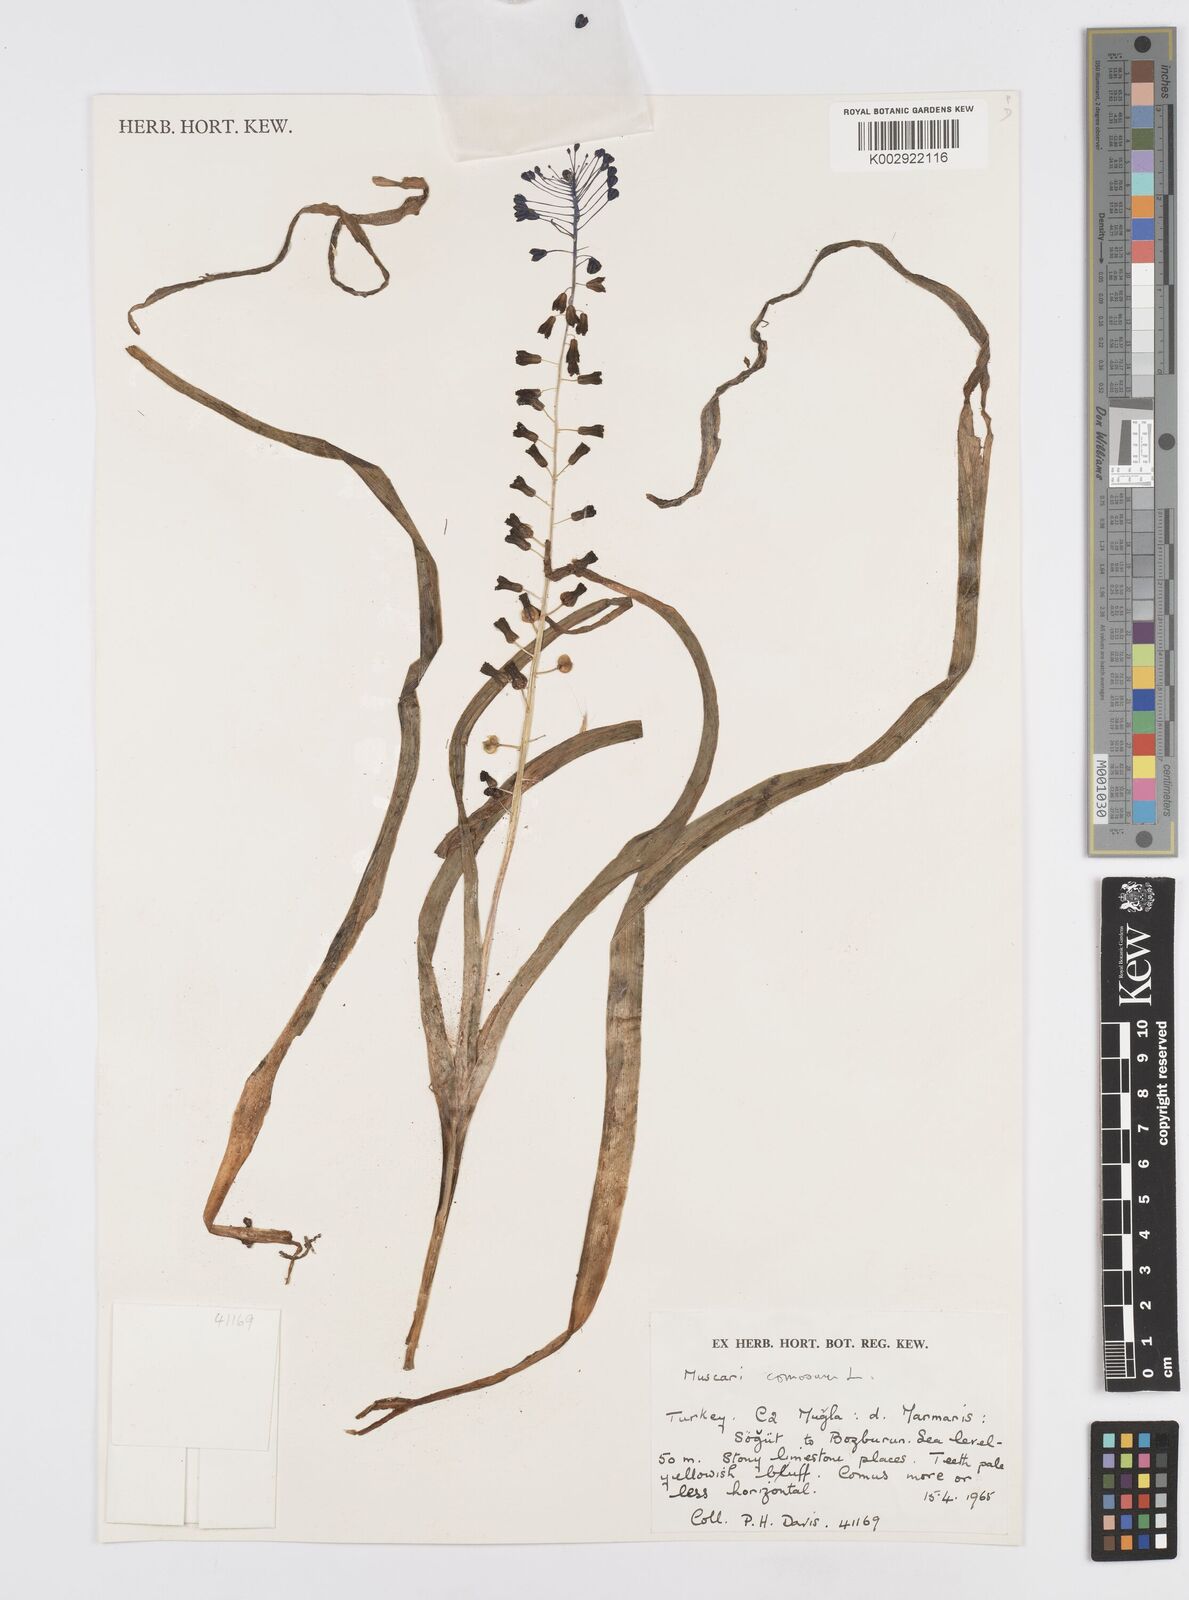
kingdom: Plantae
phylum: Tracheophyta
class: Liliopsida
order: Asparagales
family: Asparagaceae
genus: Muscari
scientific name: Muscari comosum
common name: Tassel hyacinth
